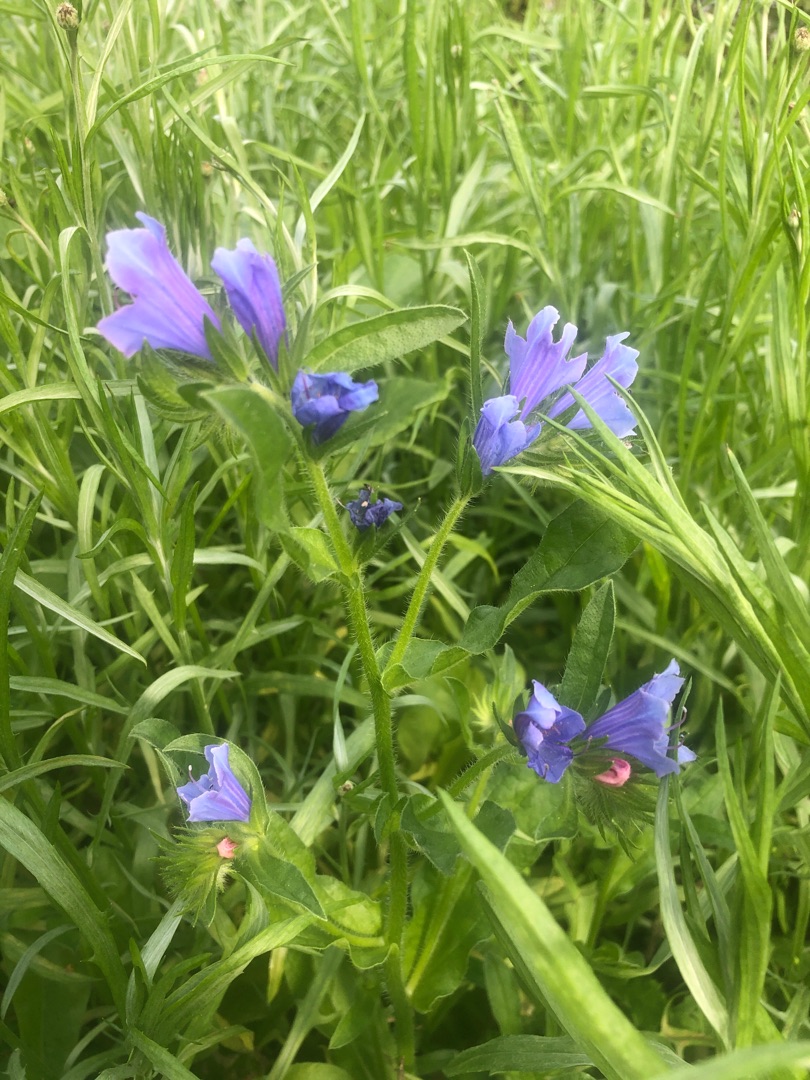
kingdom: Plantae
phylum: Tracheophyta
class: Magnoliopsida
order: Boraginales
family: Boraginaceae
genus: Echium
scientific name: Echium plantagineum
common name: Vejbred-slangehoved
